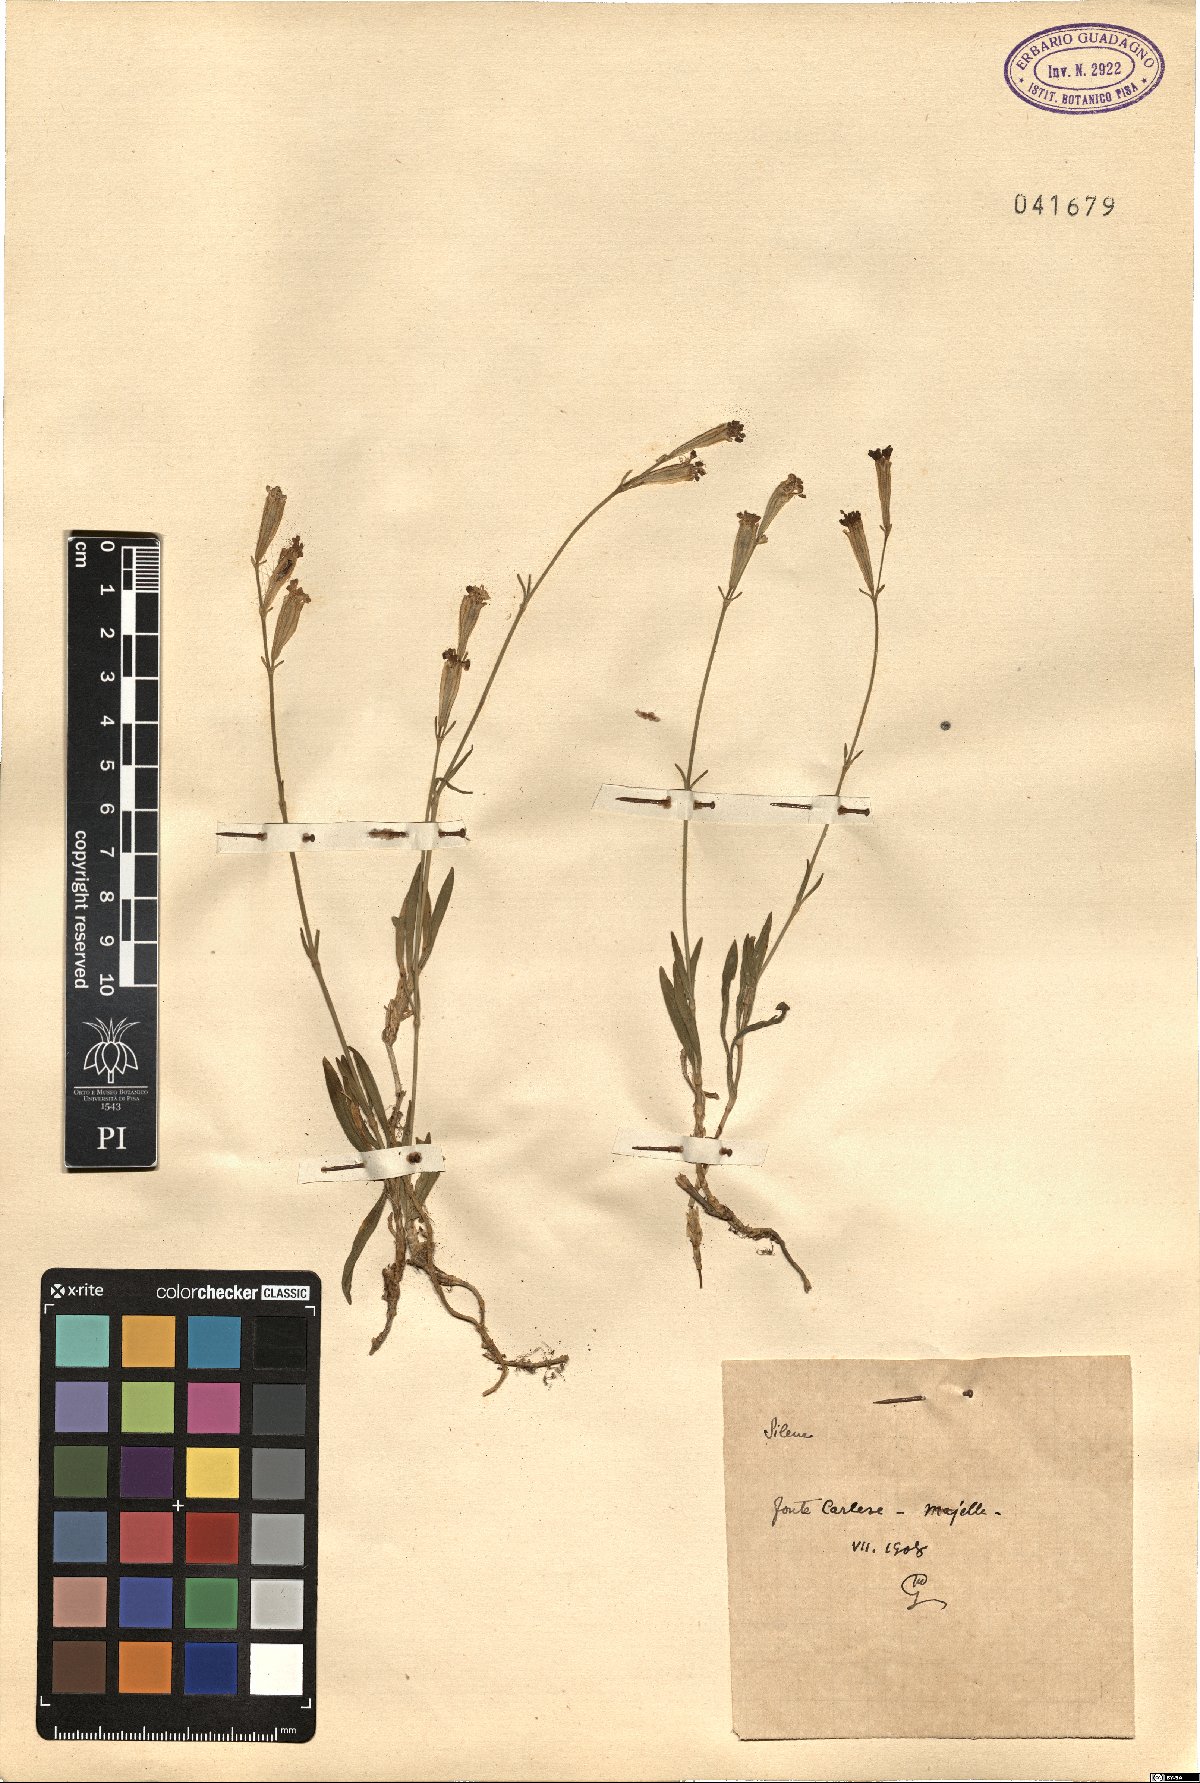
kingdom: Plantae
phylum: Tracheophyta
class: Magnoliopsida
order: Caryophyllales
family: Caryophyllaceae
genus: Silene
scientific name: Silene
